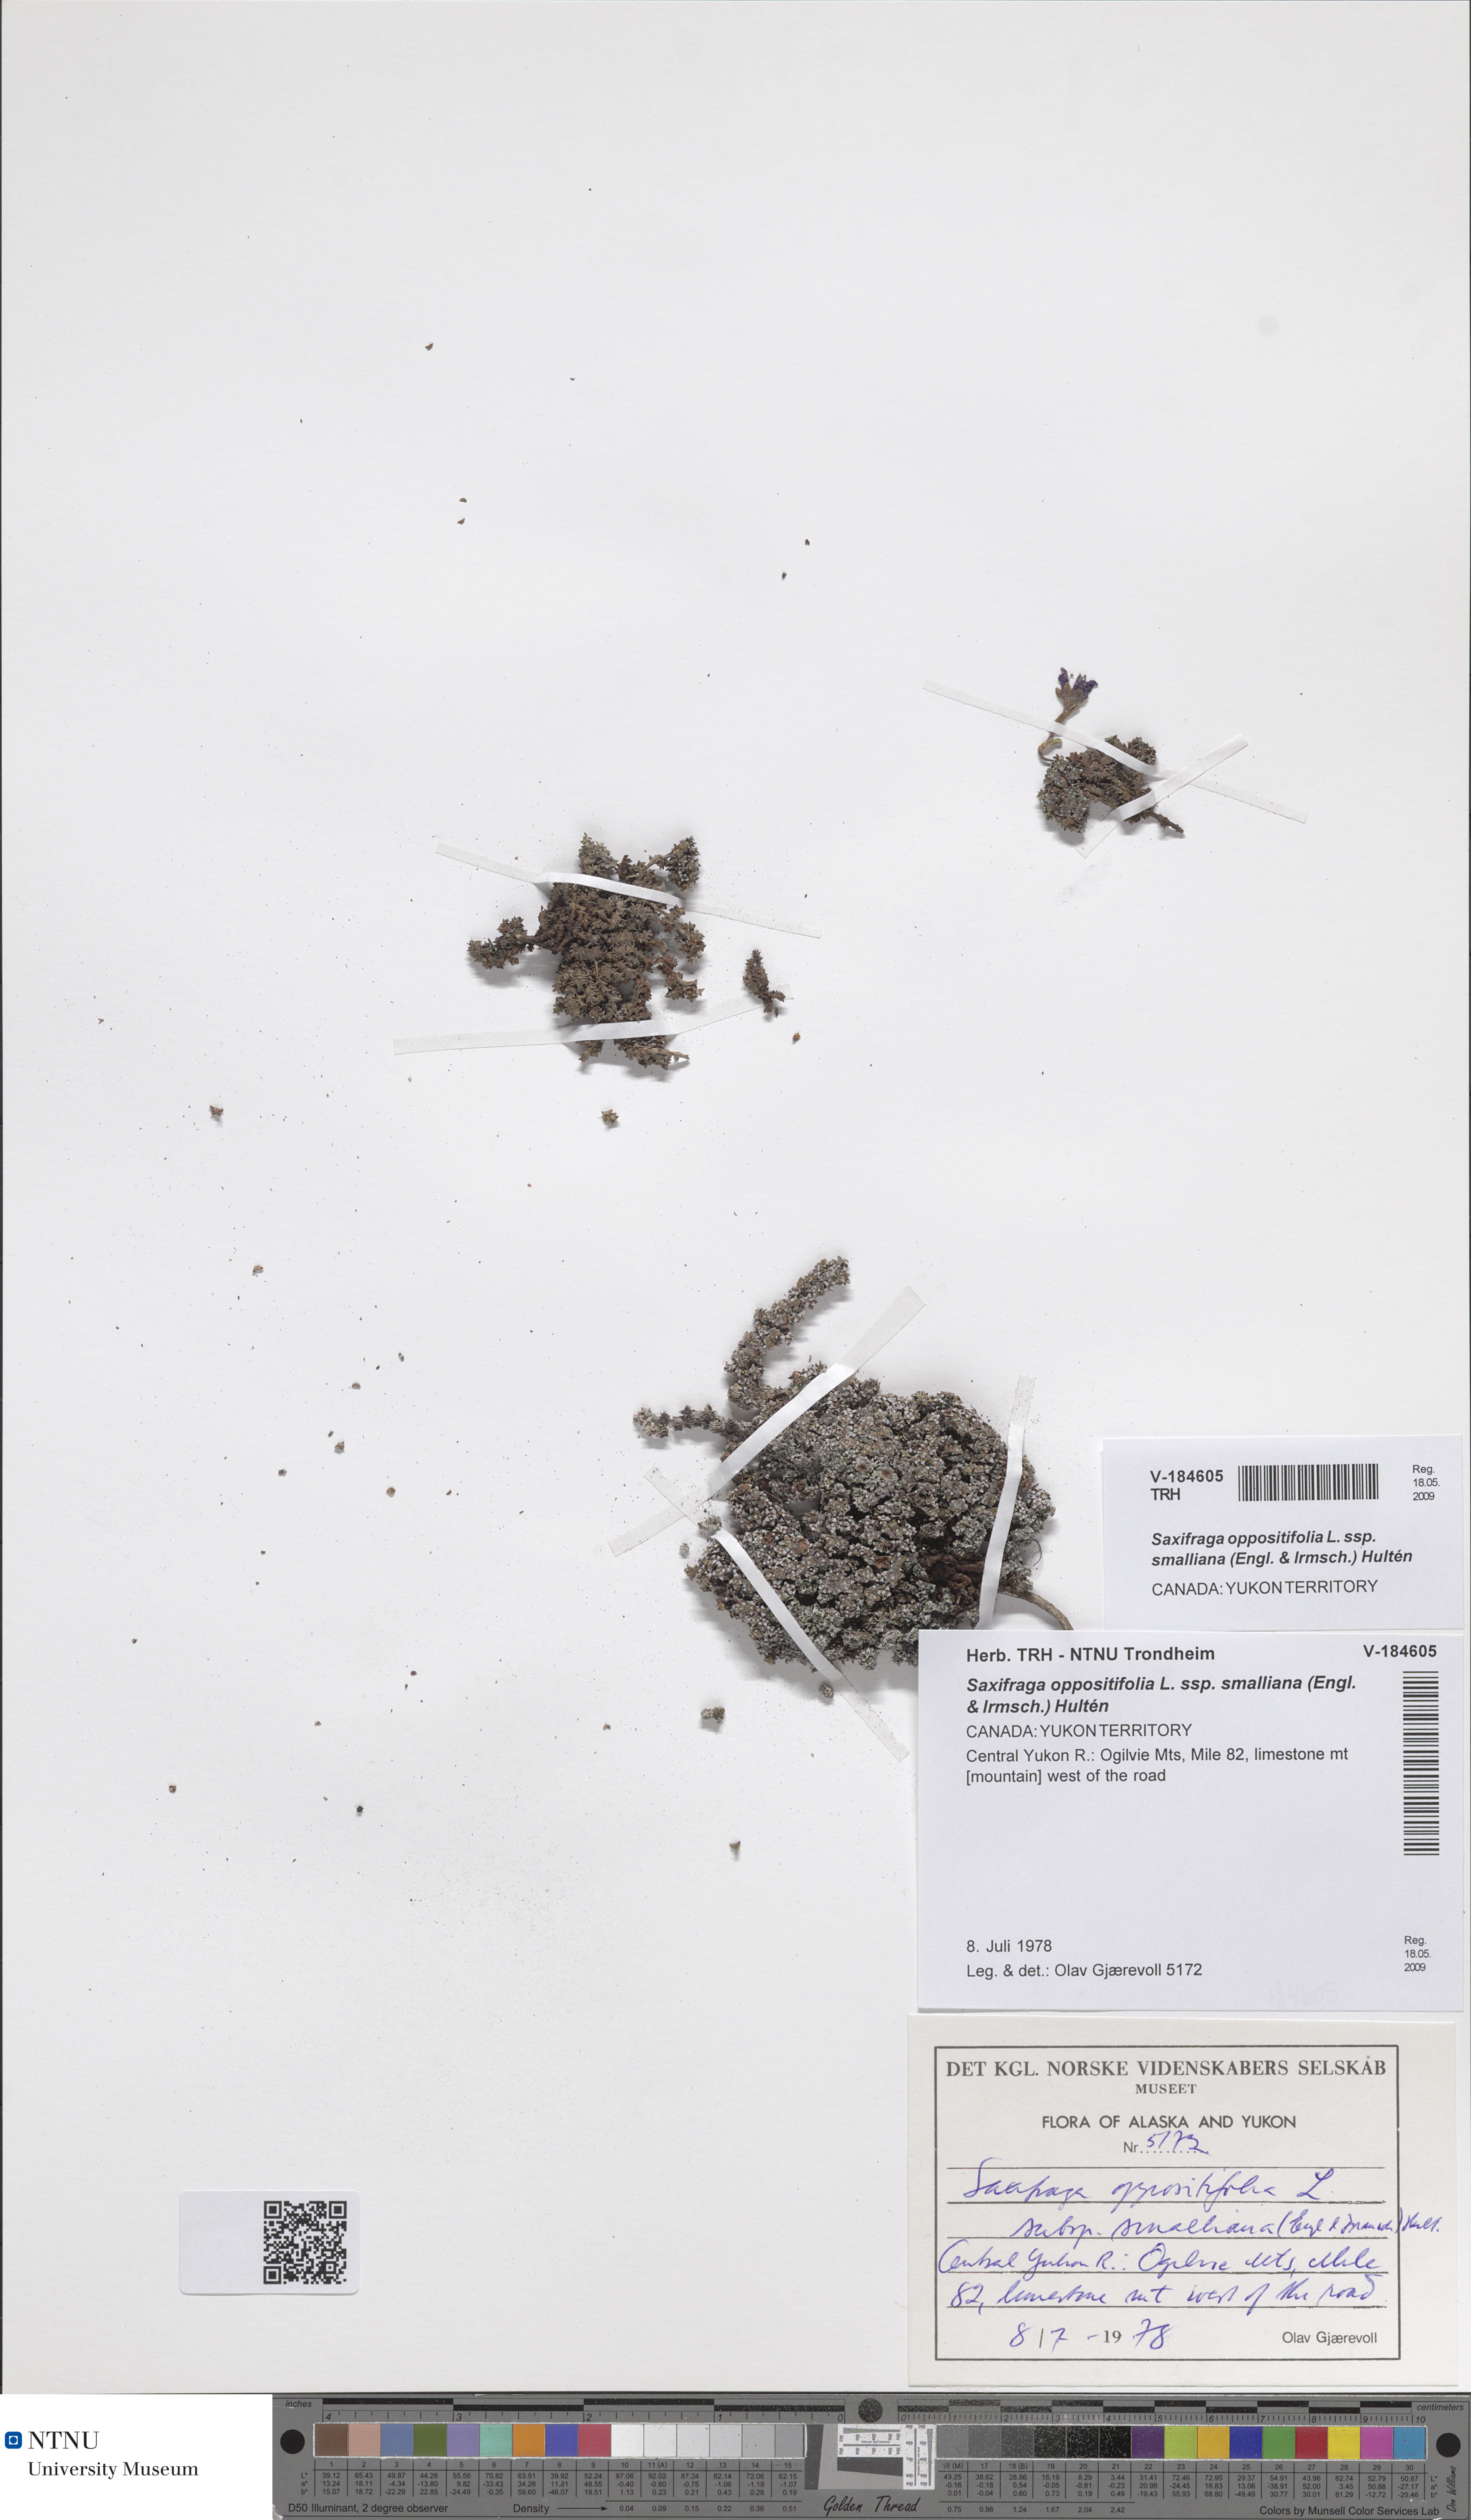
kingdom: Plantae
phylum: Tracheophyta
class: Magnoliopsida
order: Saxifragales
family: Saxifragaceae
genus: Saxifraga
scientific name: Saxifraga oppositifolia
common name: Purple saxifrage
